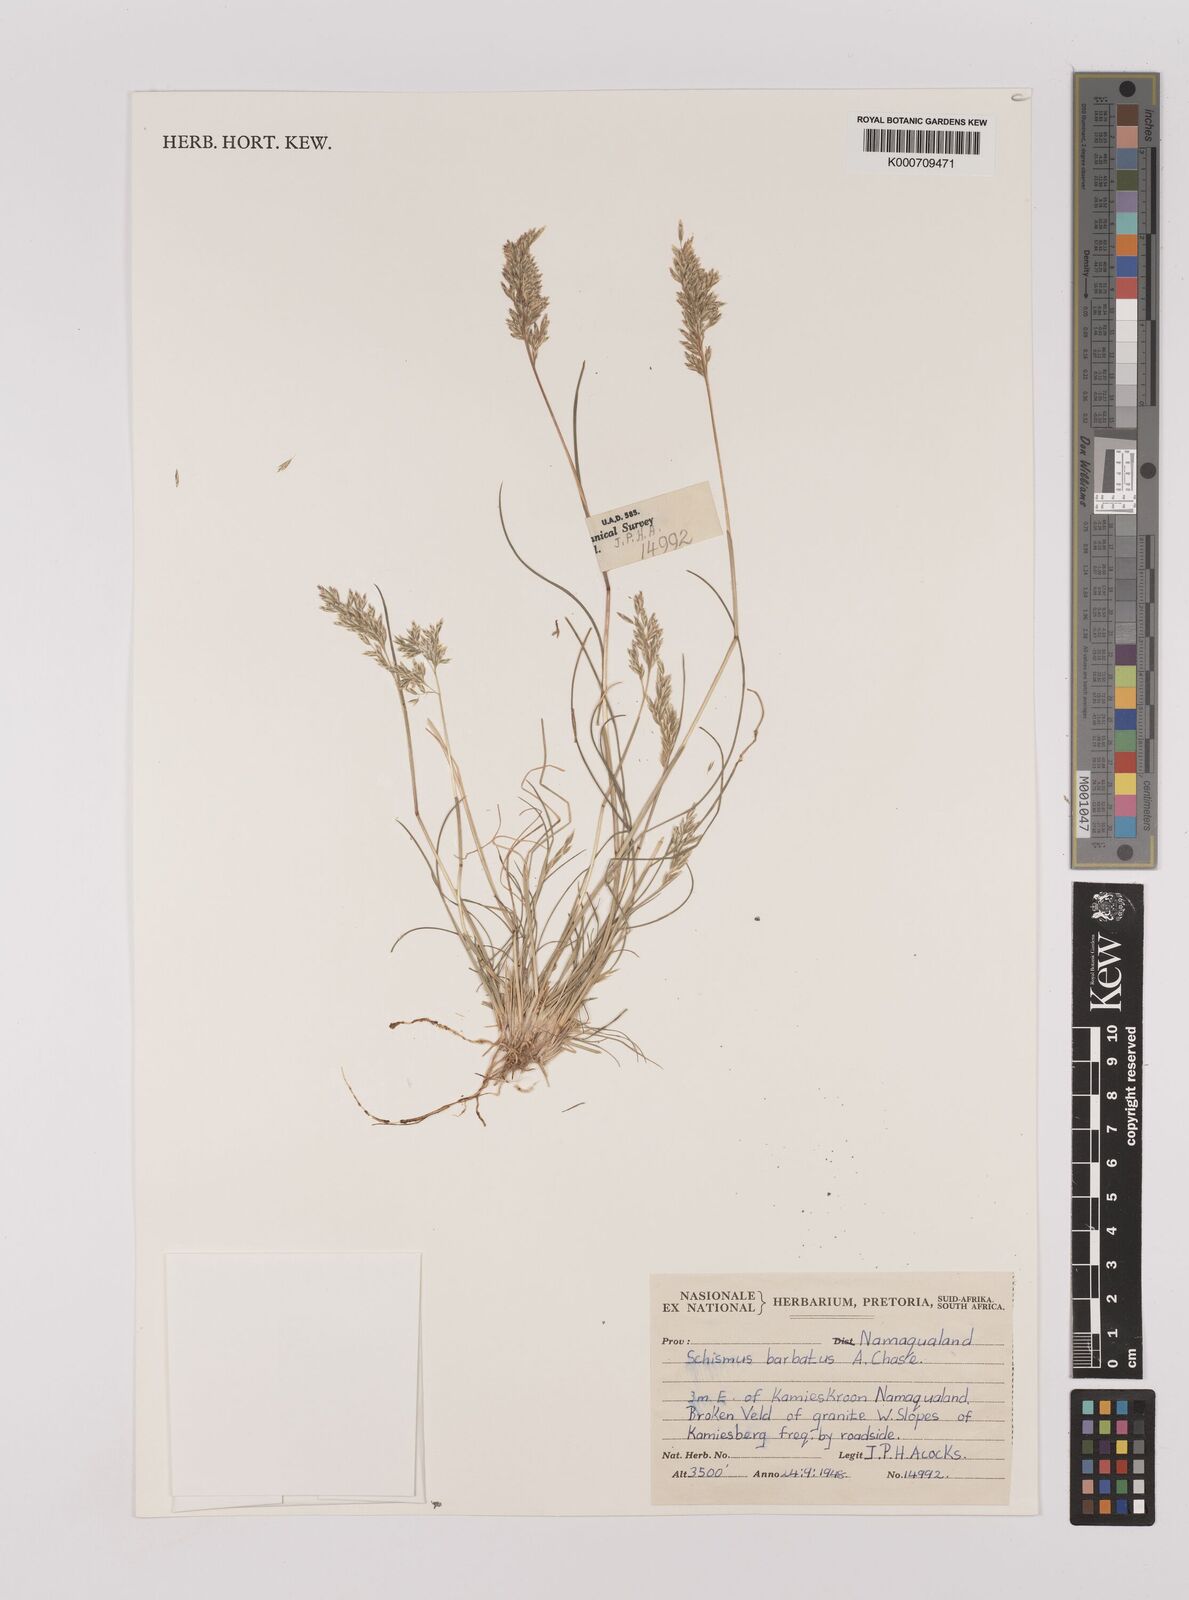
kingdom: Plantae
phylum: Tracheophyta
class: Liliopsida
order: Poales
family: Poaceae
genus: Schismus
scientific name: Schismus barbatus
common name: Kelch-grass
